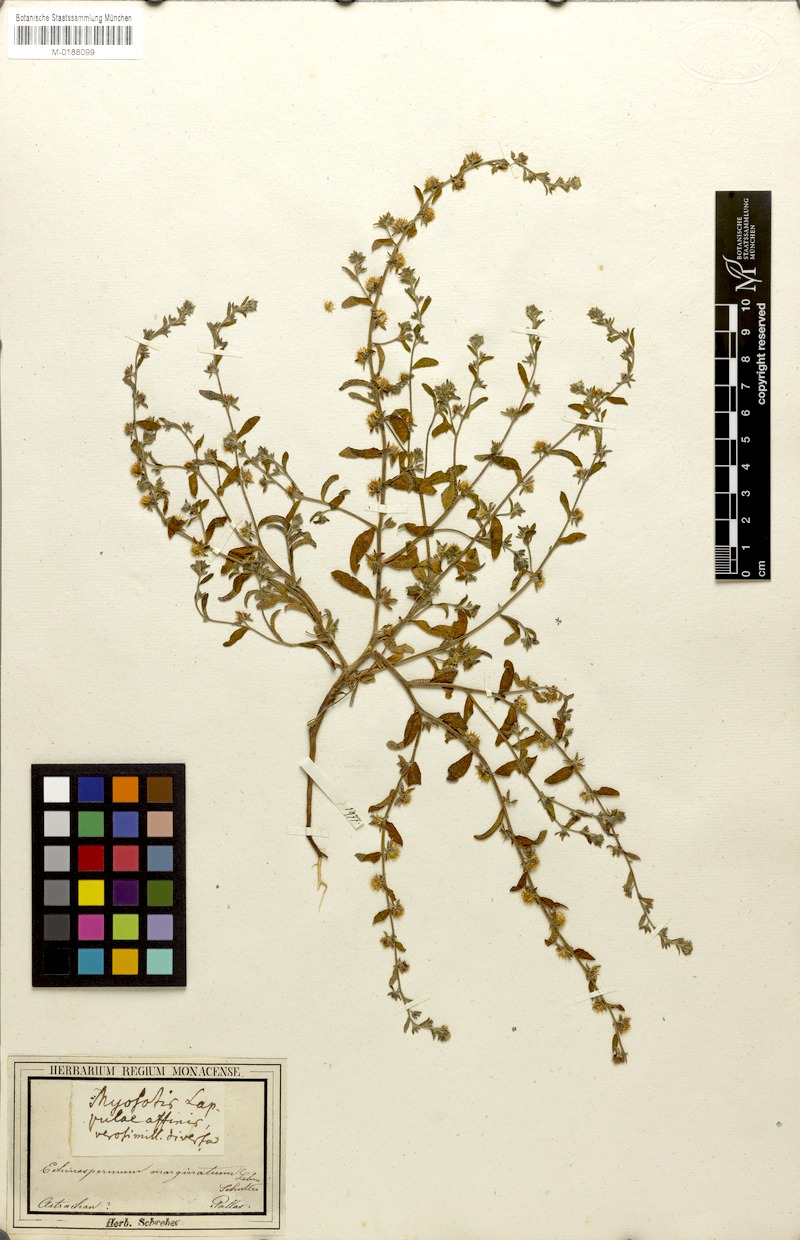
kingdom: Plantae
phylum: Tracheophyta
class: Magnoliopsida
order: Boraginales
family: Boraginaceae
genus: Lappula
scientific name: Lappula marginata
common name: Margined stickseed
